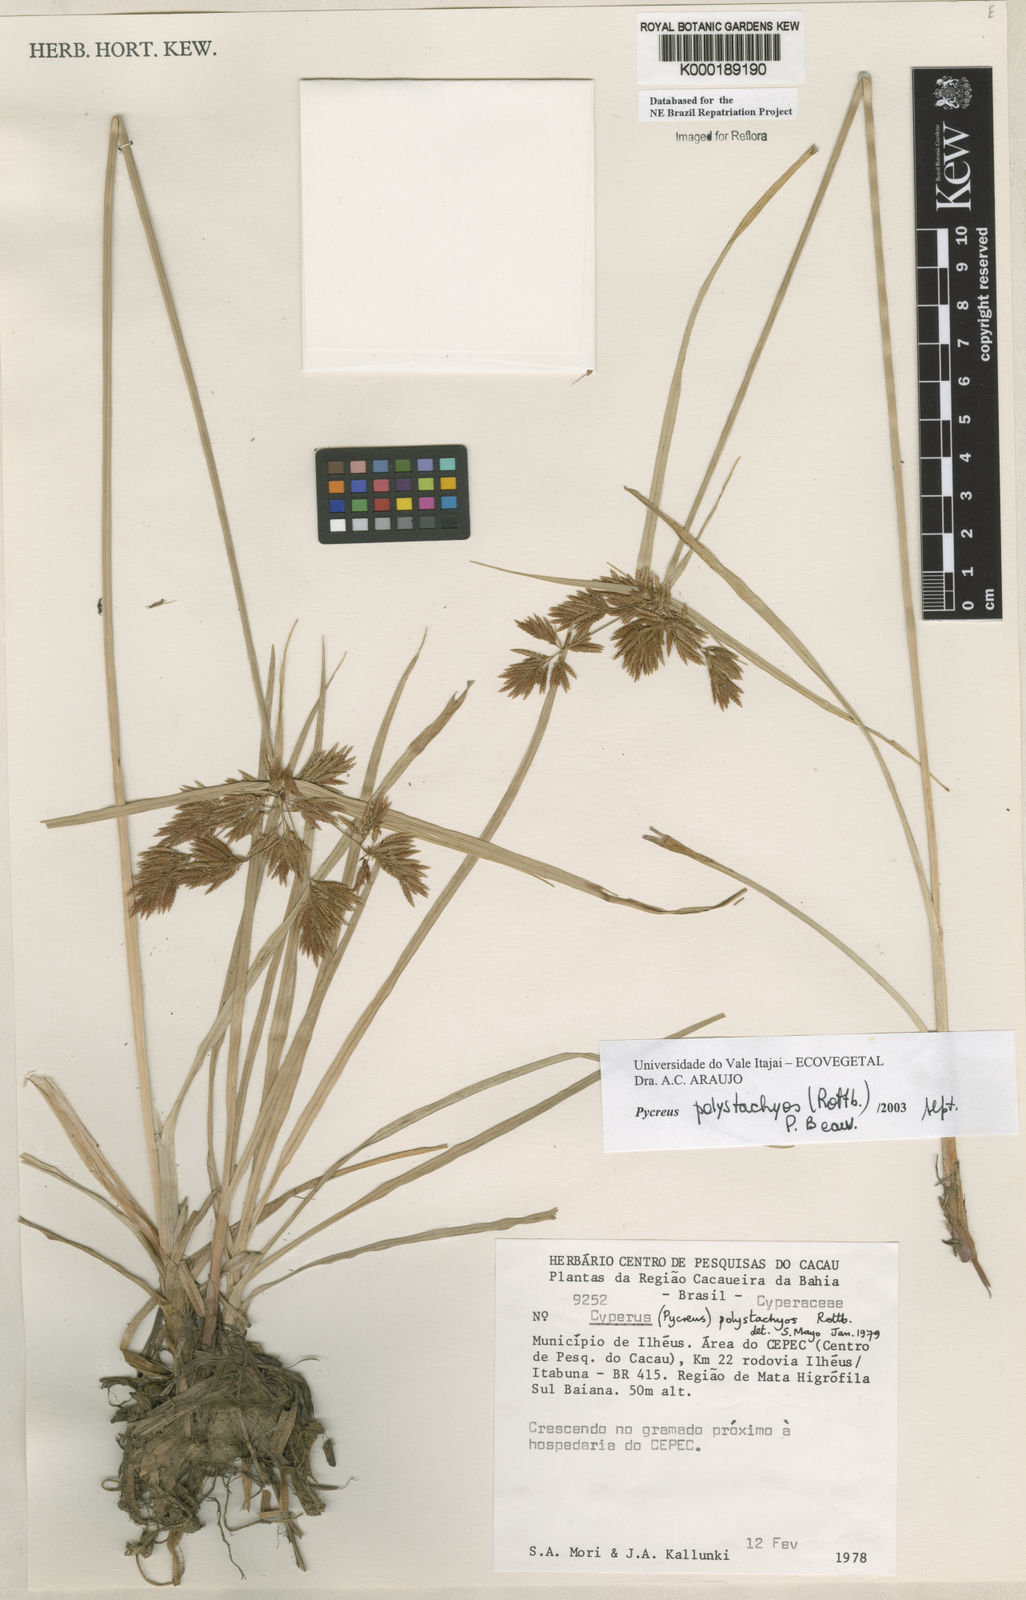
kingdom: Plantae
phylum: Tracheophyta
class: Liliopsida
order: Poales
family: Cyperaceae
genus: Cyperus
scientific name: Cyperus polystachyos
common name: Bunchy flat sedge
